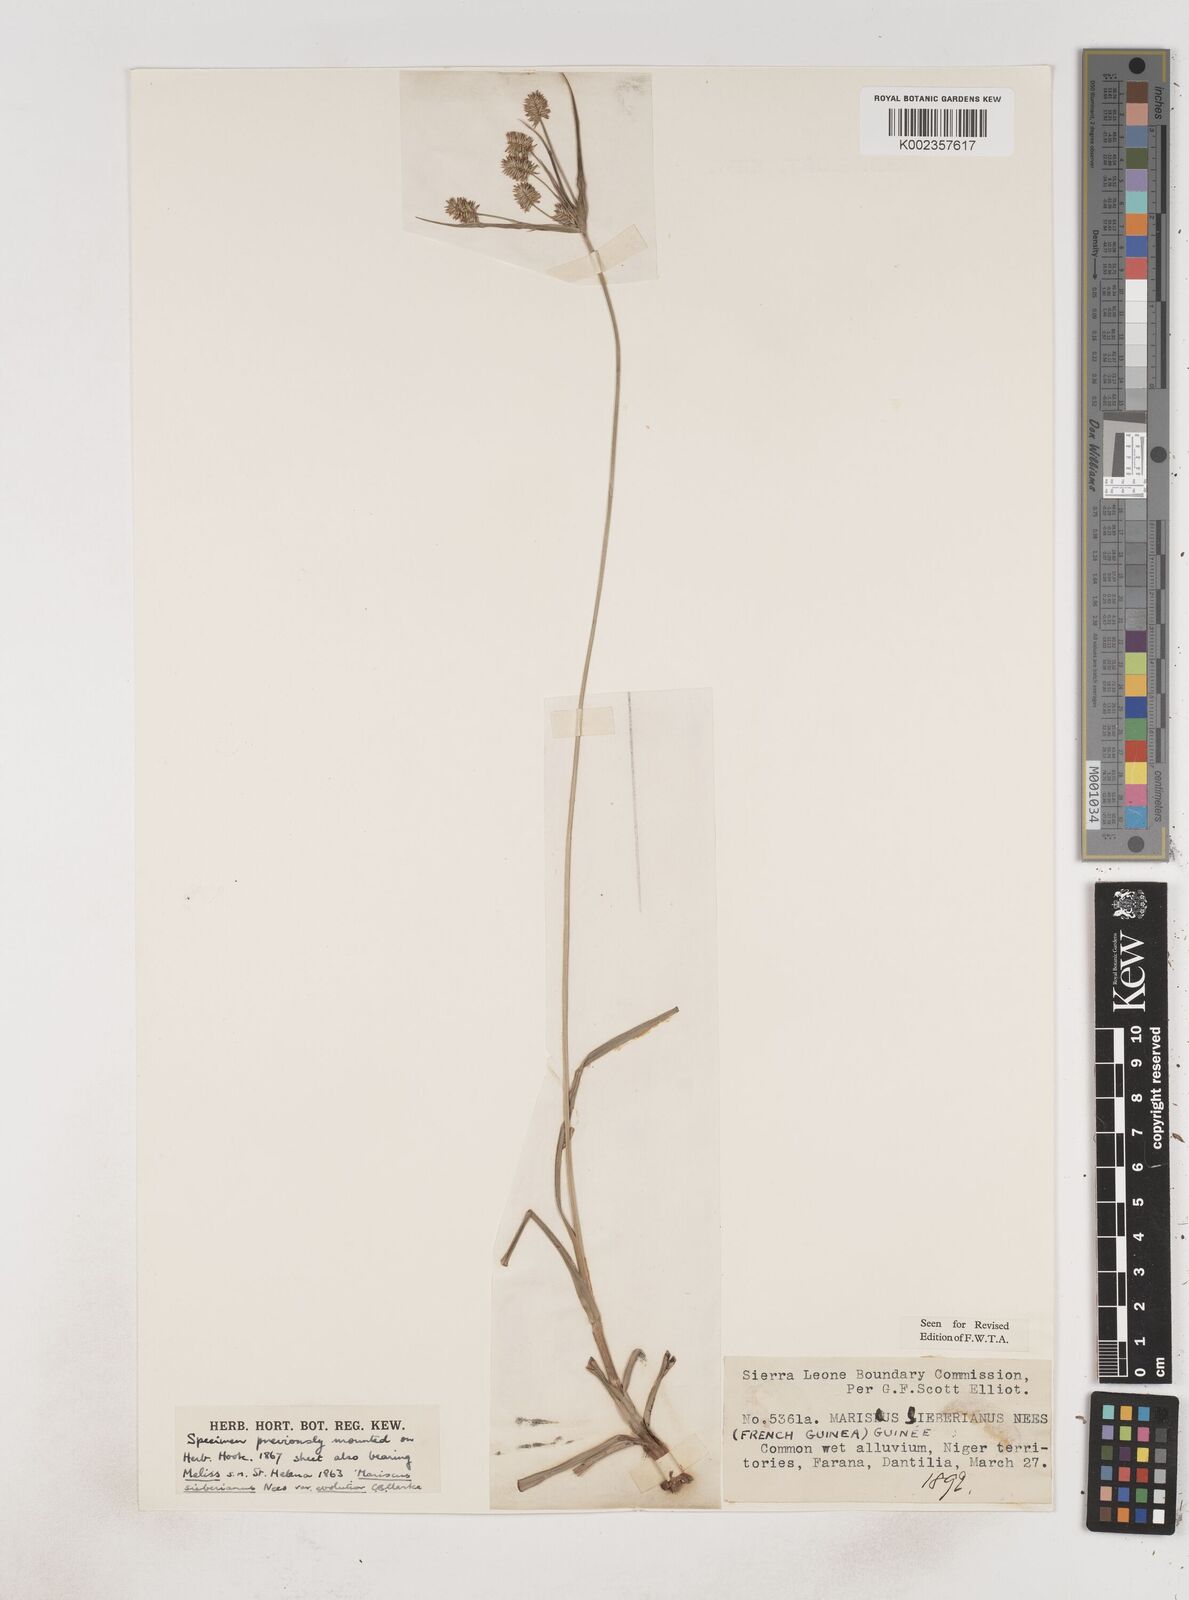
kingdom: Plantae
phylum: Tracheophyta
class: Liliopsida
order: Poales
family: Cyperaceae
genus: Cyperus
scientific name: Cyperus cyperoides
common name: Pacific island flat sedge
